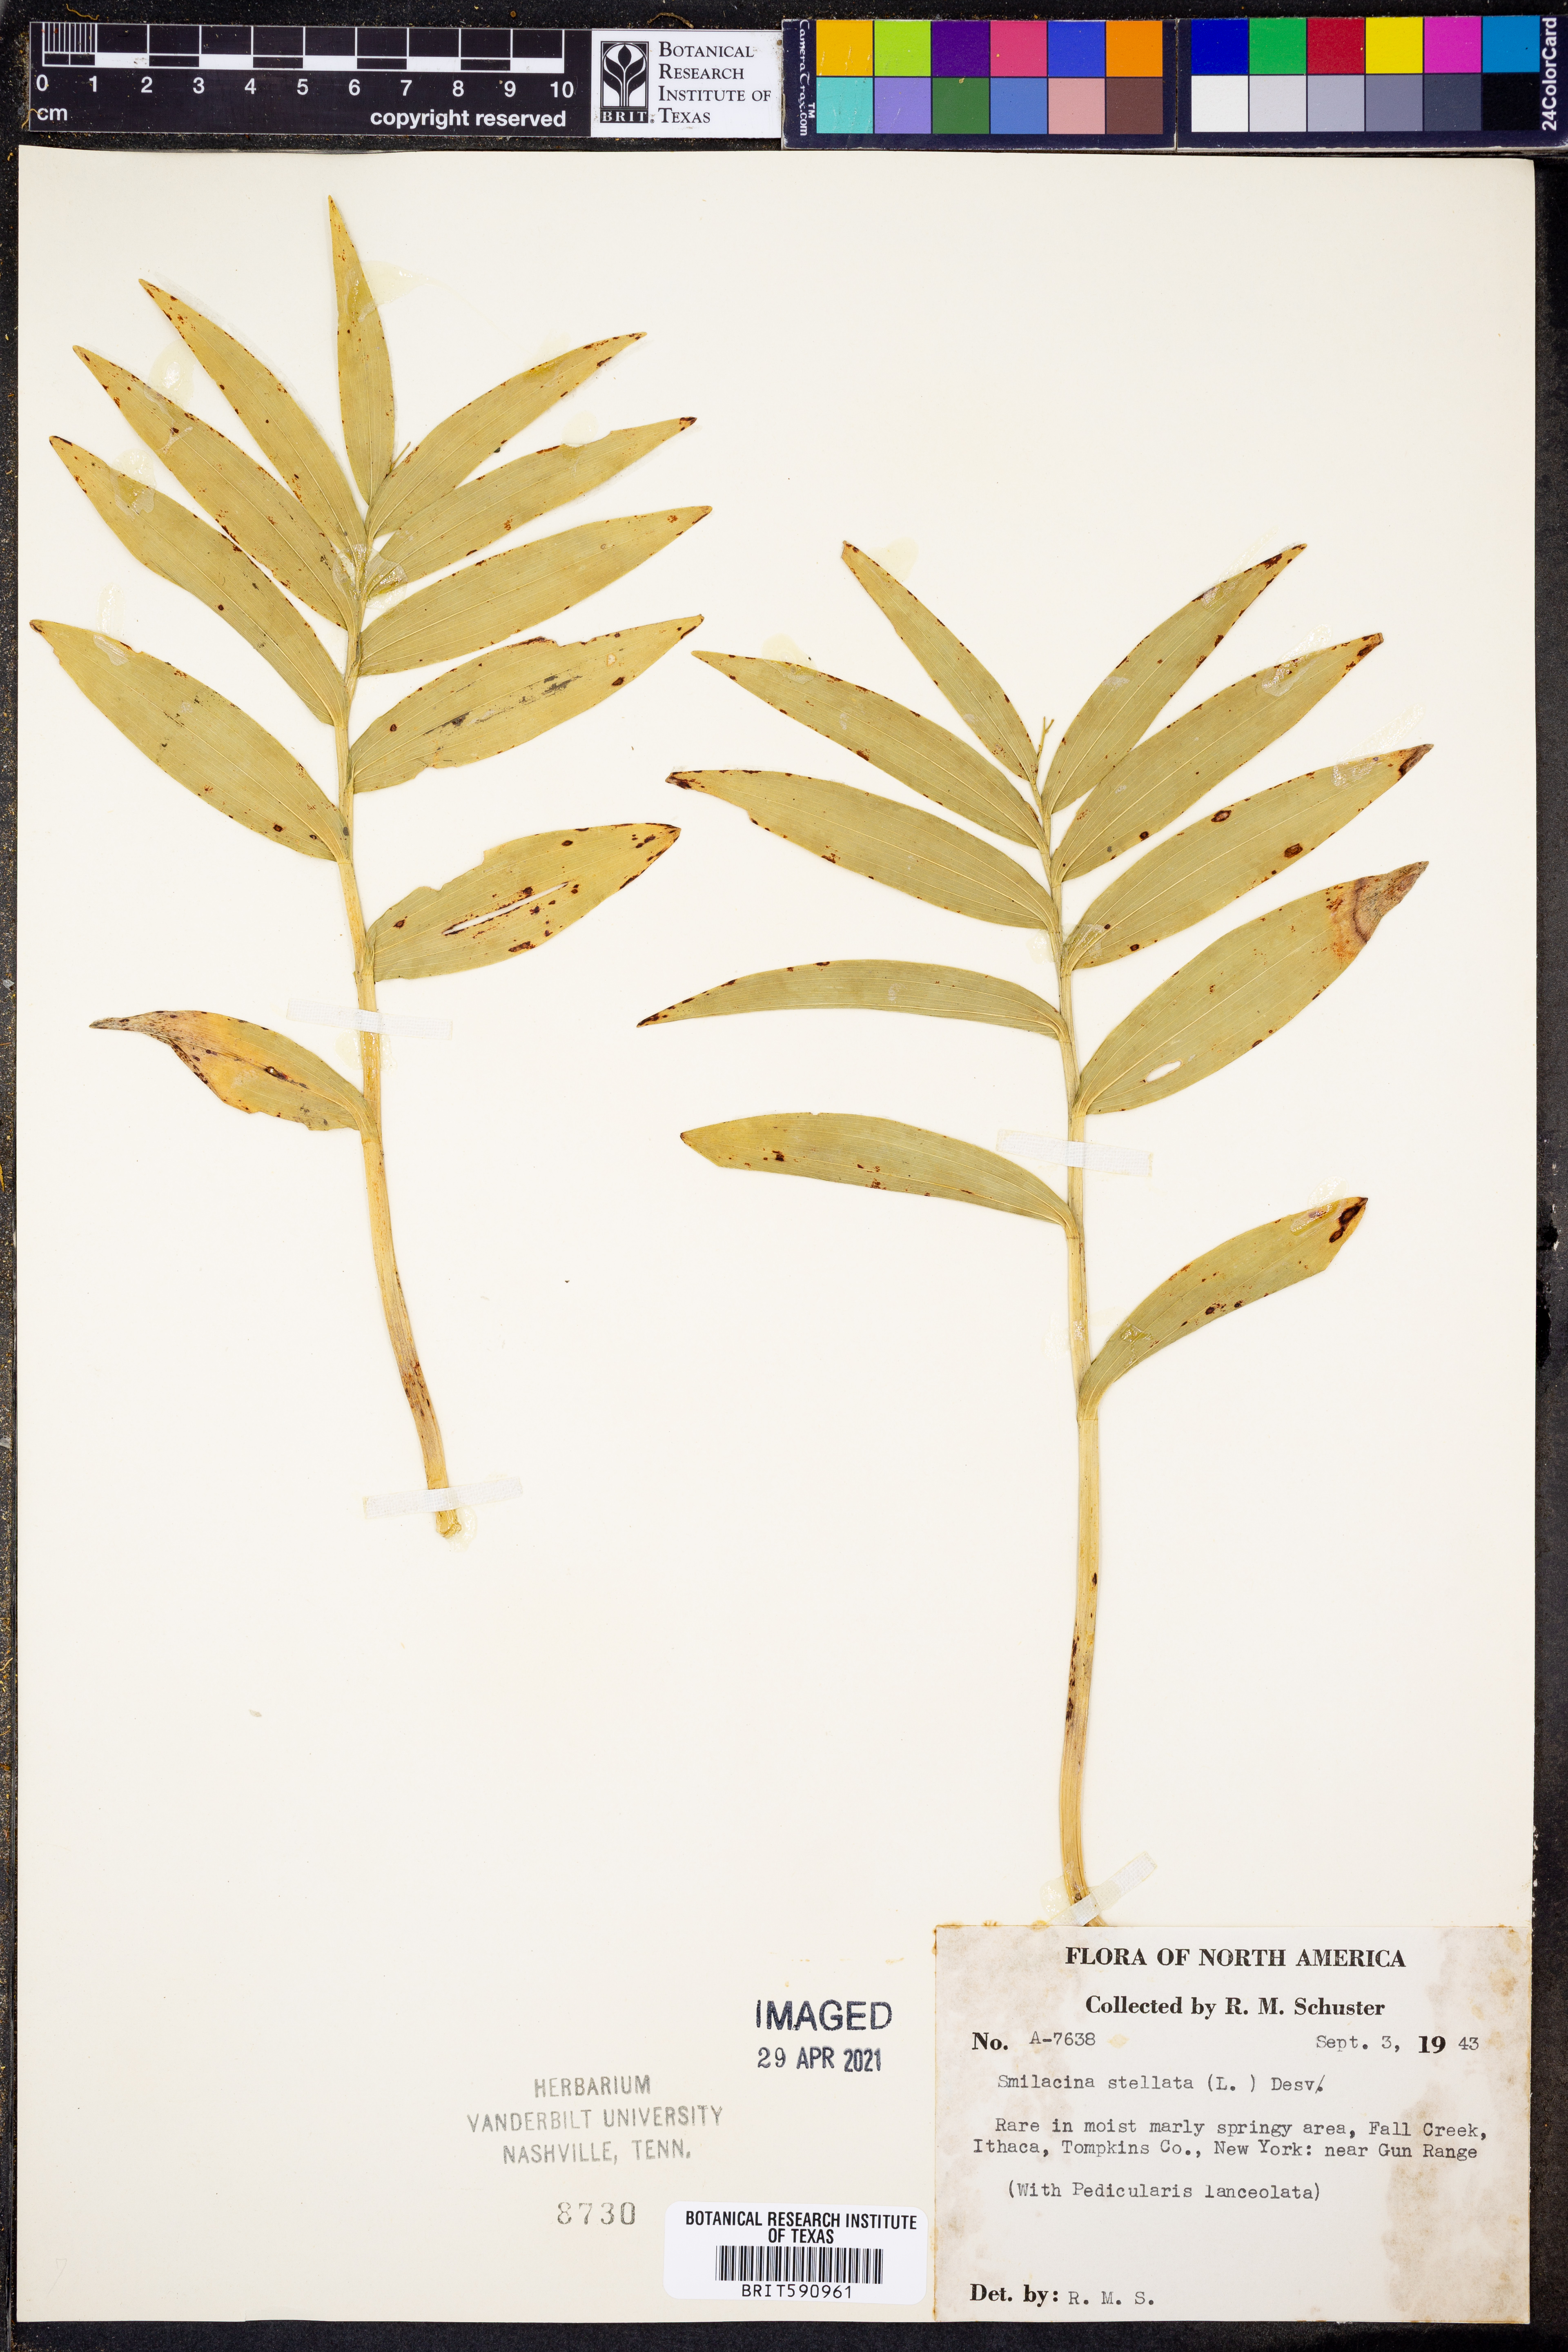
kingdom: Plantae
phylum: Tracheophyta
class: Liliopsida
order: Asparagales
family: Asparagaceae
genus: Maianthemum
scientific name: Maianthemum stellatum
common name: Little false solomon's seal
